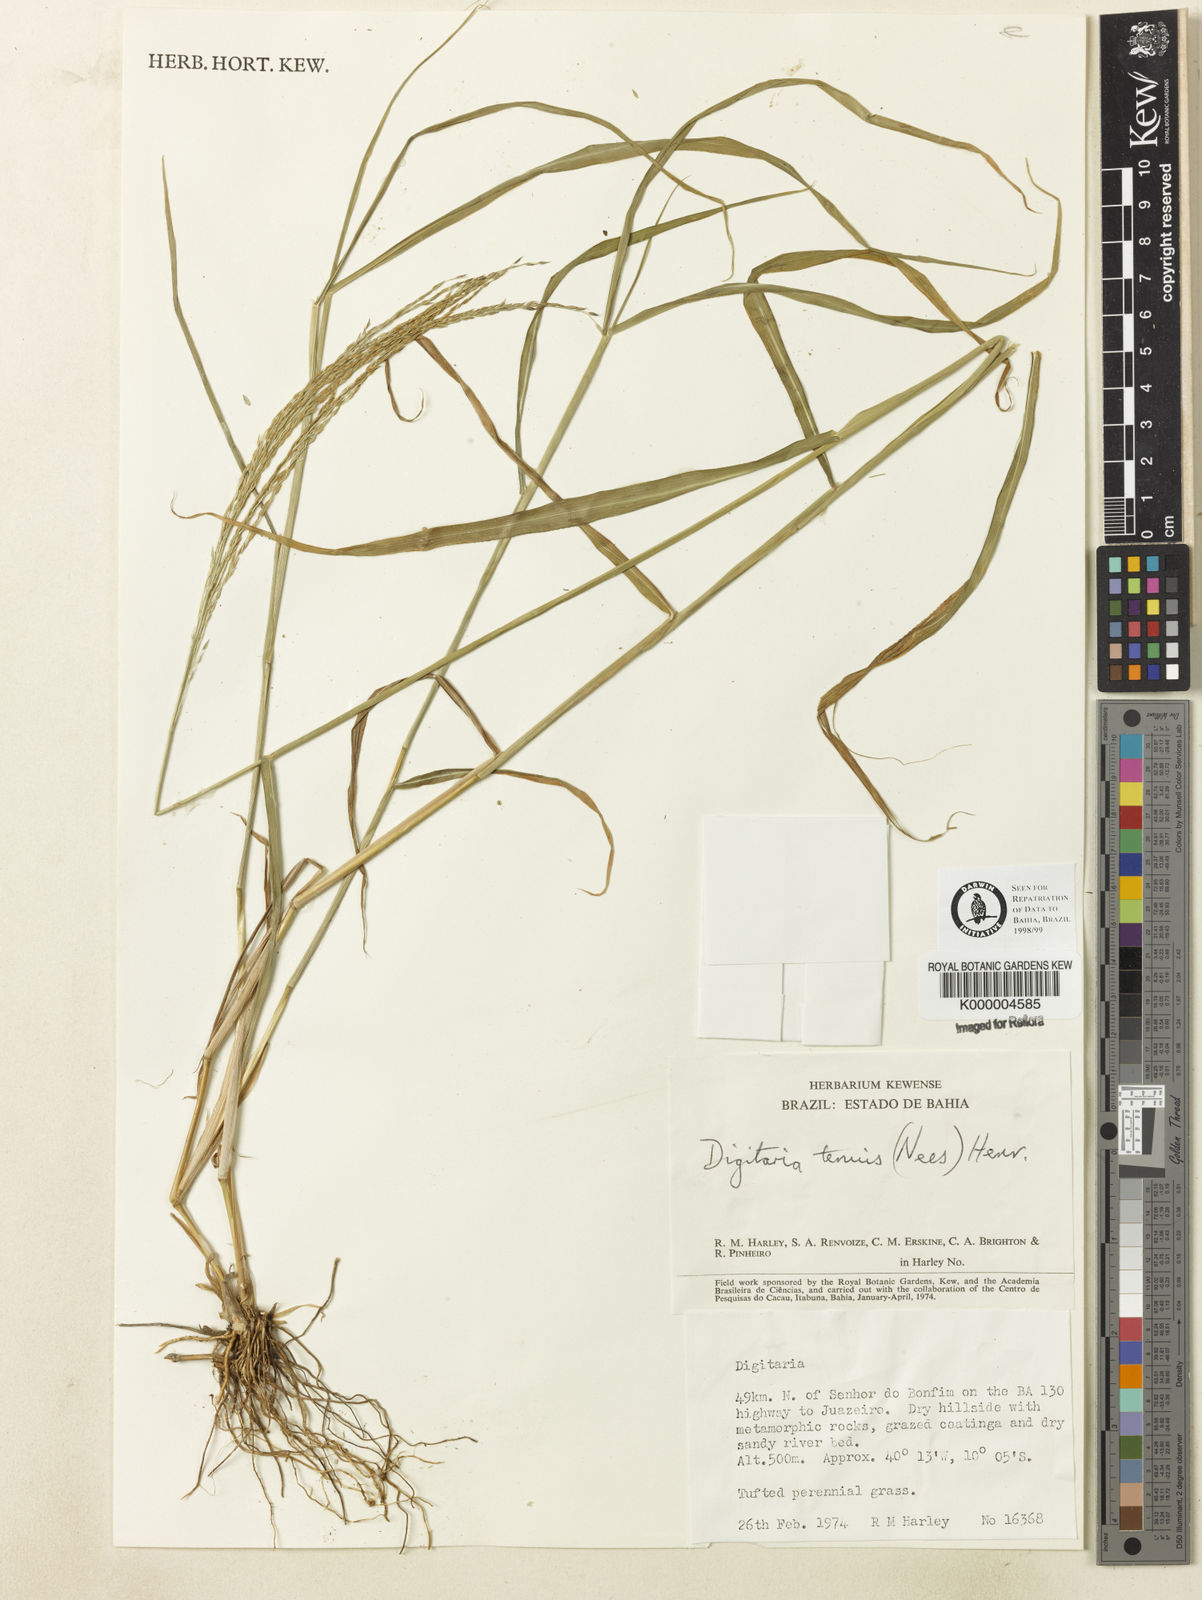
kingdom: Plantae
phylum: Tracheophyta
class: Liliopsida
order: Poales
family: Poaceae
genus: Digitaria
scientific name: Digitaria tenuis
